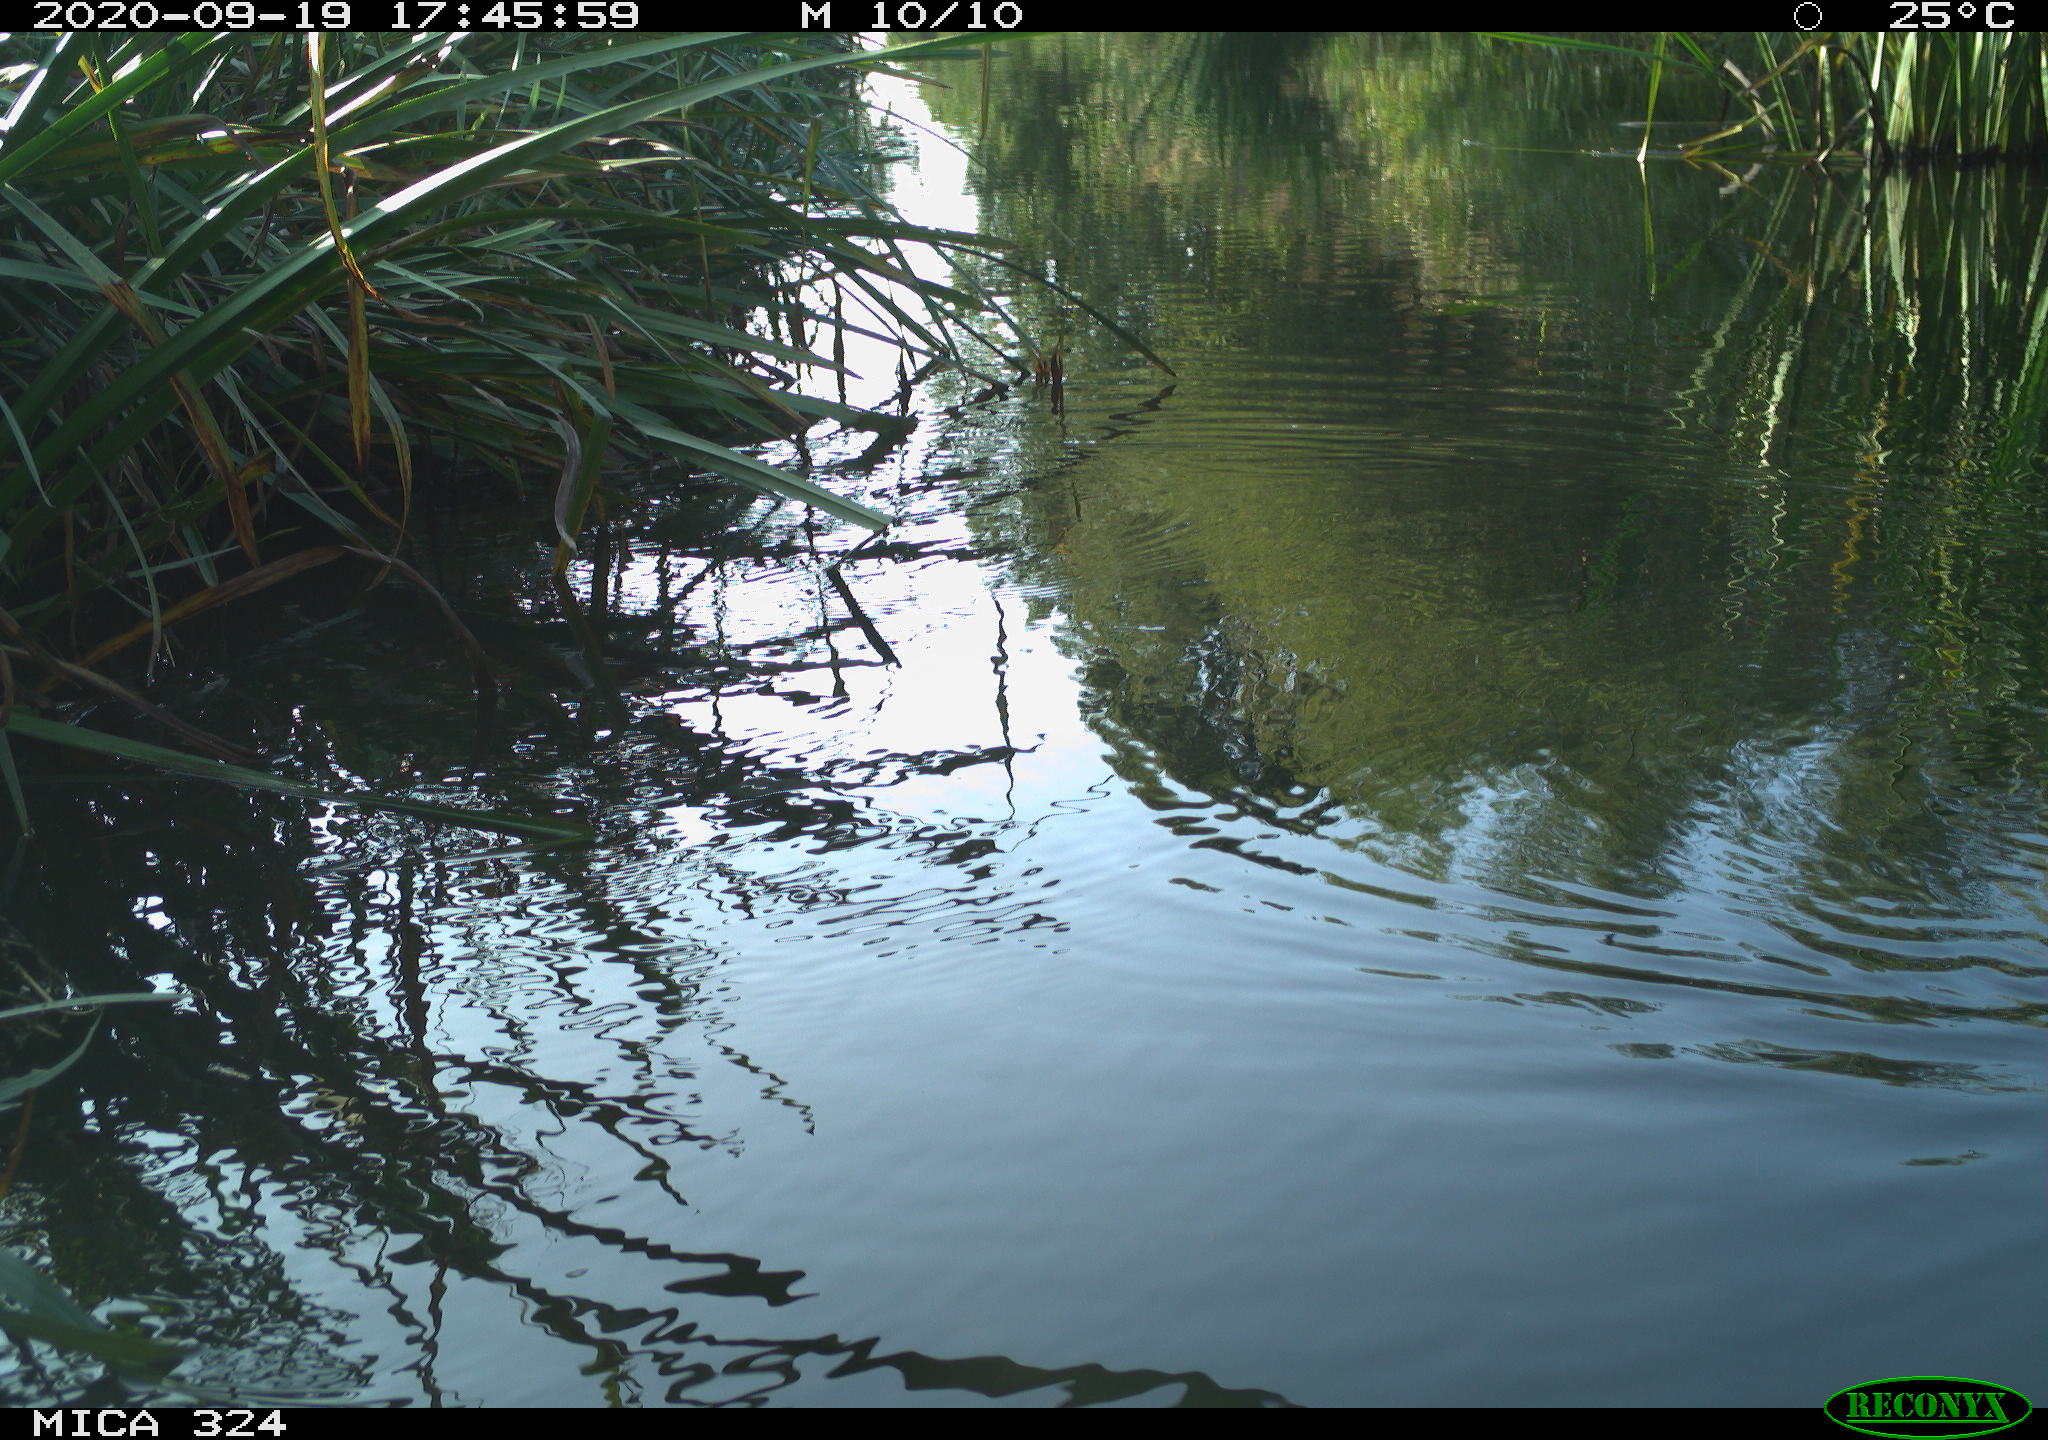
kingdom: Animalia
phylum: Chordata
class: Aves
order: Gruiformes
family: Rallidae
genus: Gallinula
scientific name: Gallinula chloropus
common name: Common moorhen
